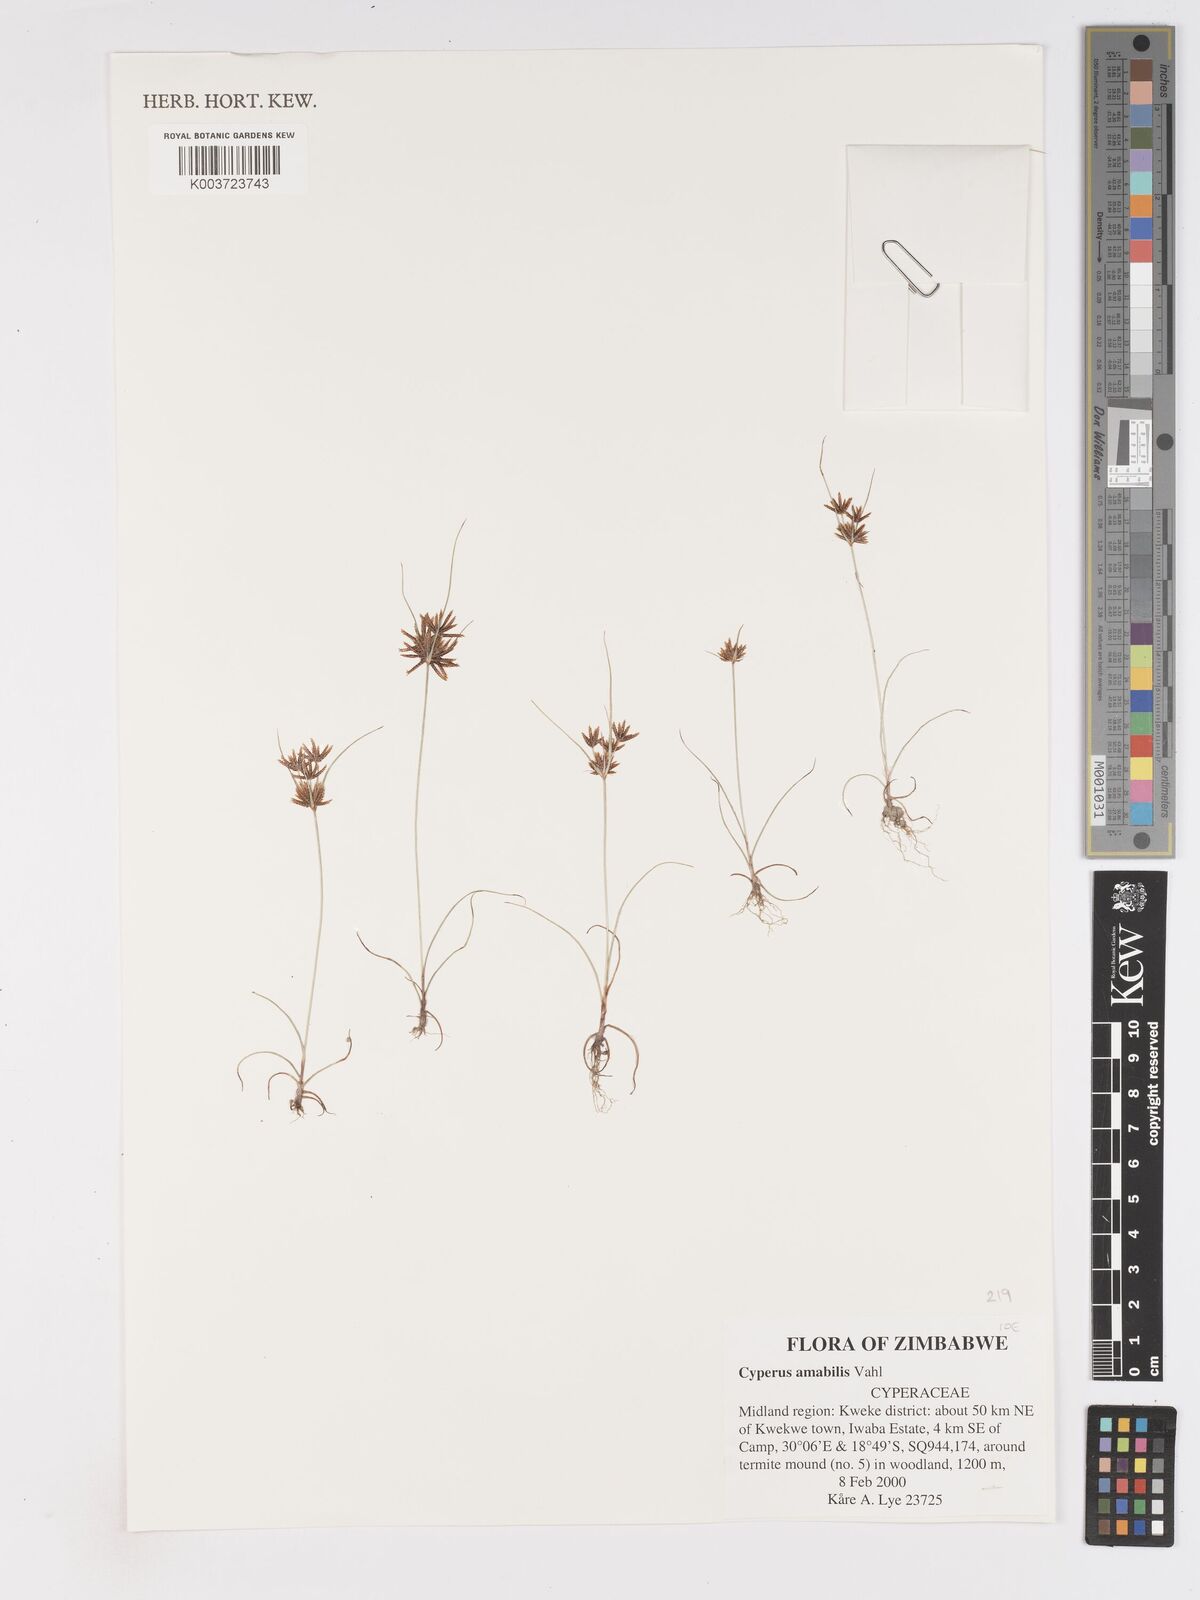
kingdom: Plantae
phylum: Tracheophyta
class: Liliopsida
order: Poales
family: Cyperaceae
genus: Cyperus
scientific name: Cyperus amabilis
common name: Foothill flat sedge
